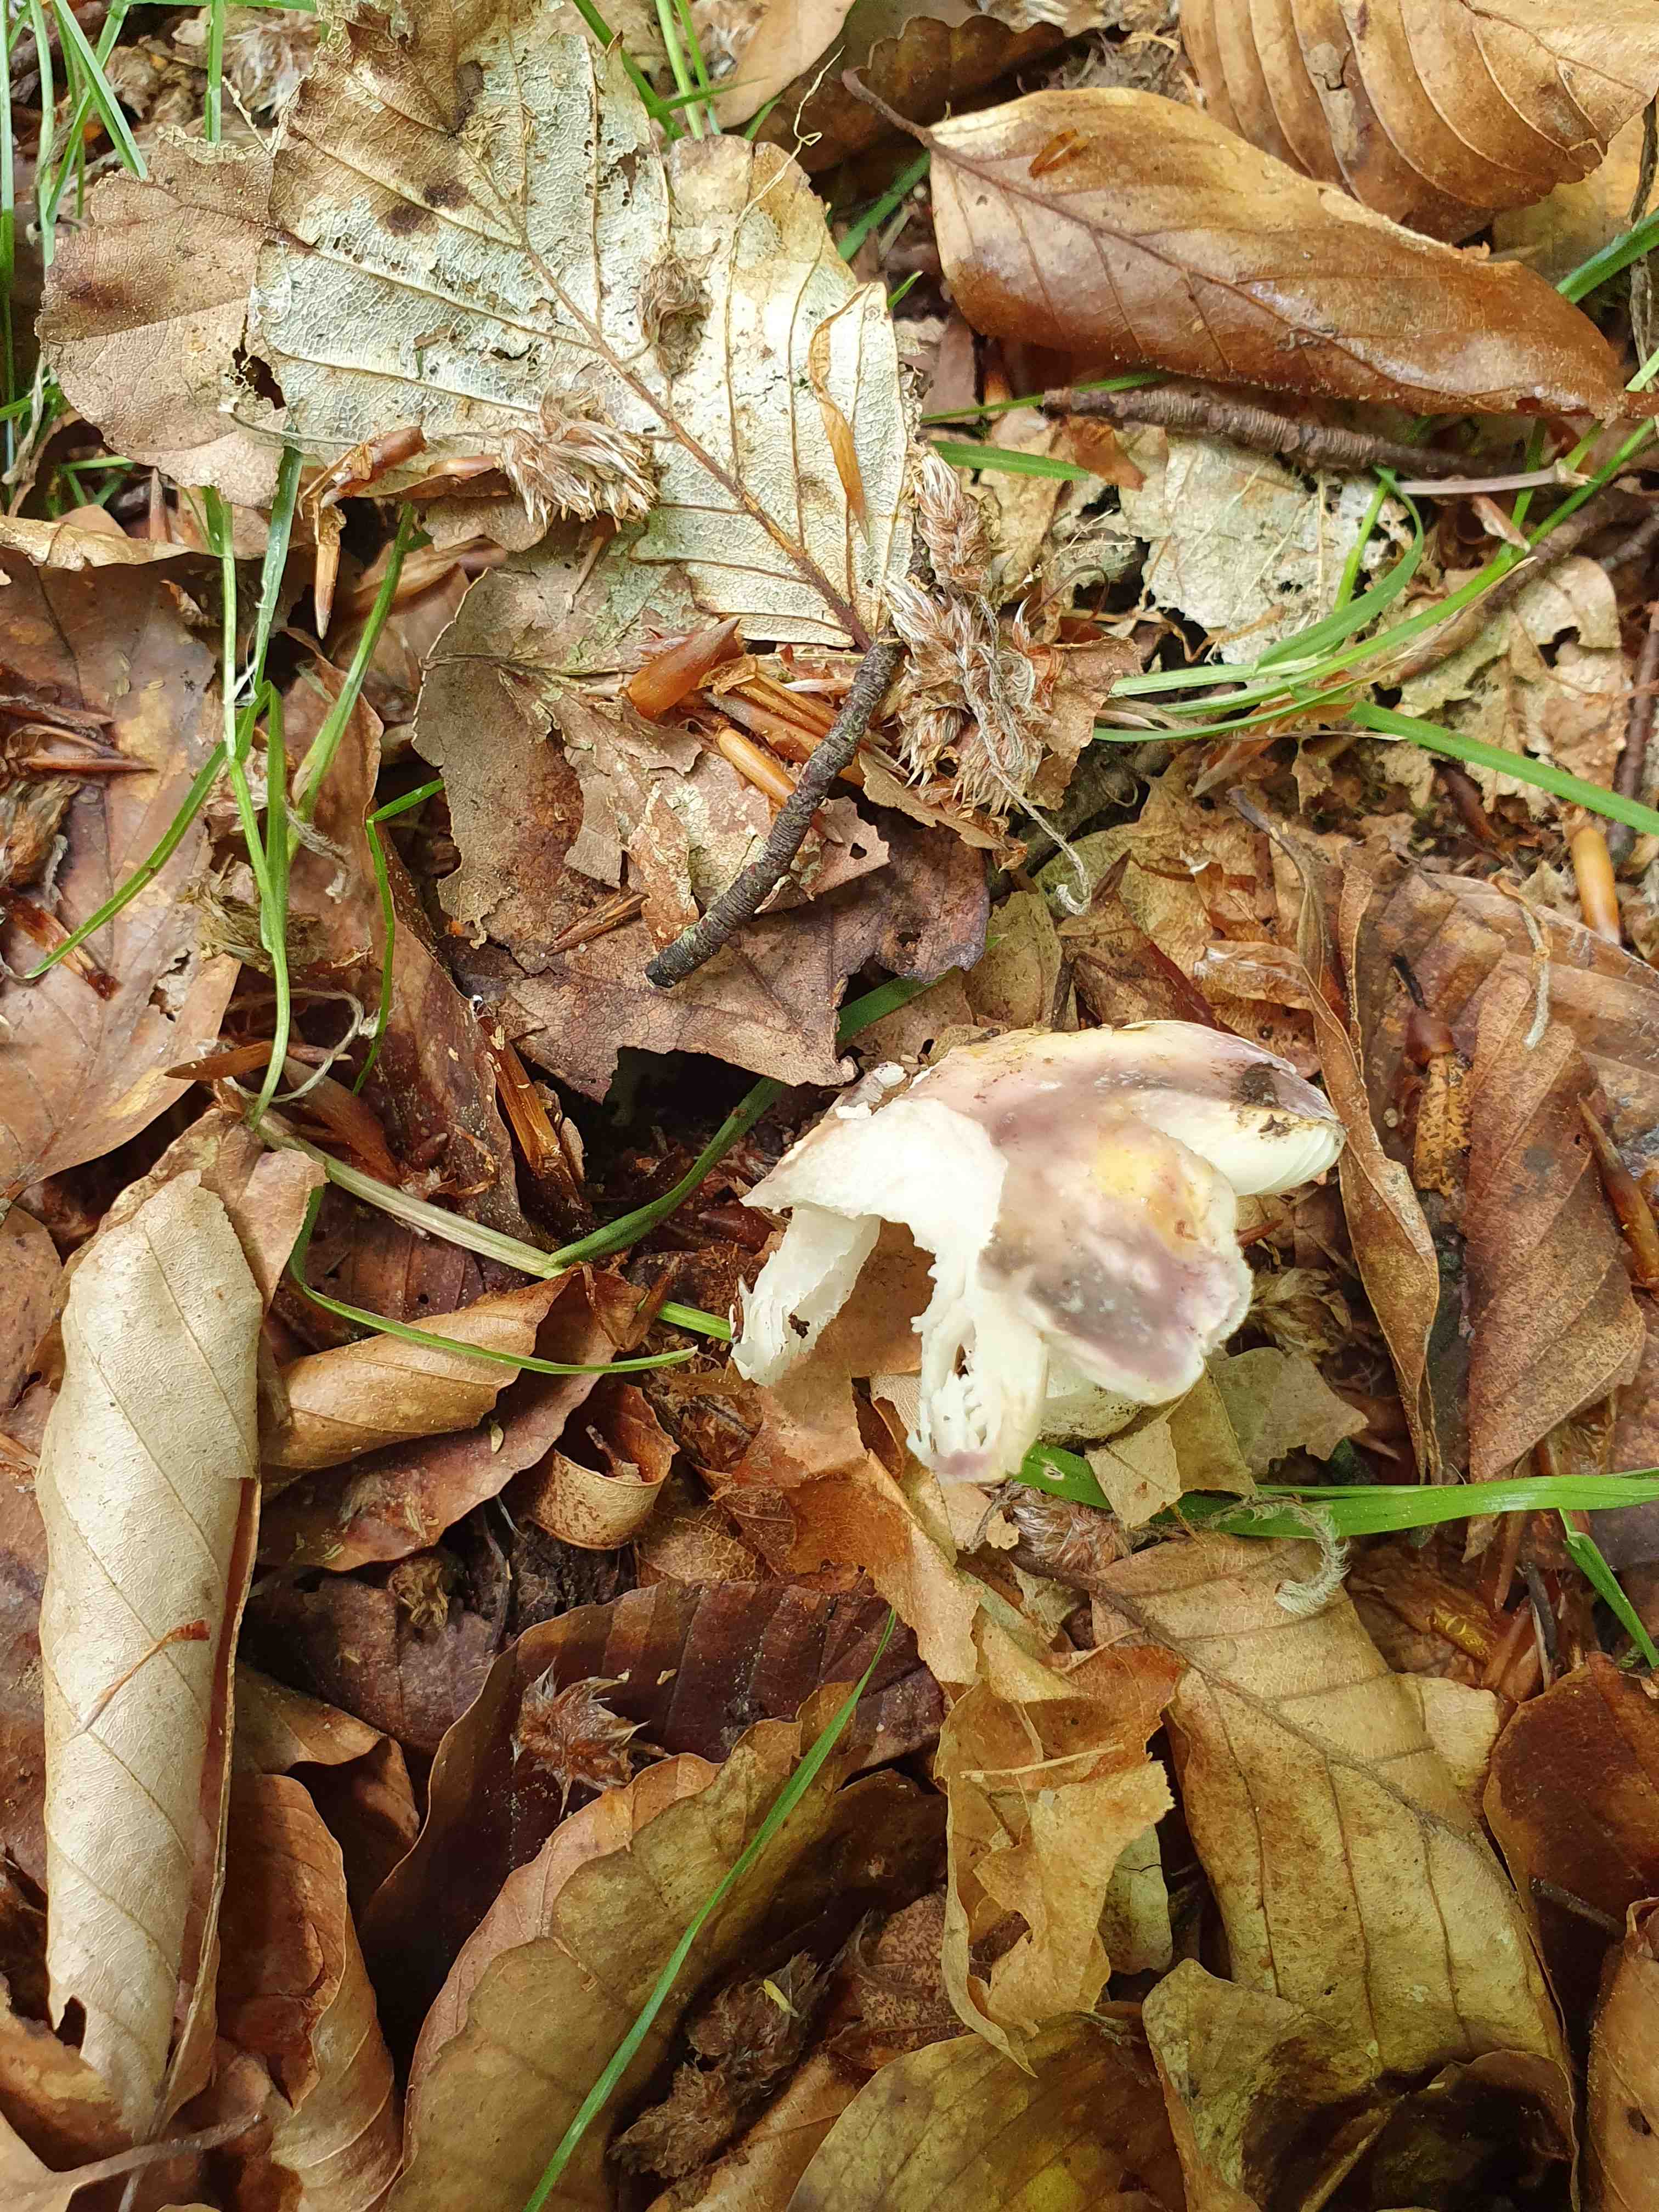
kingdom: Fungi
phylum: Basidiomycota
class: Agaricomycetes
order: Russulales
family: Russulaceae
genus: Russula
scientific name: Russula cyanoxantha
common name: broget skørhat
